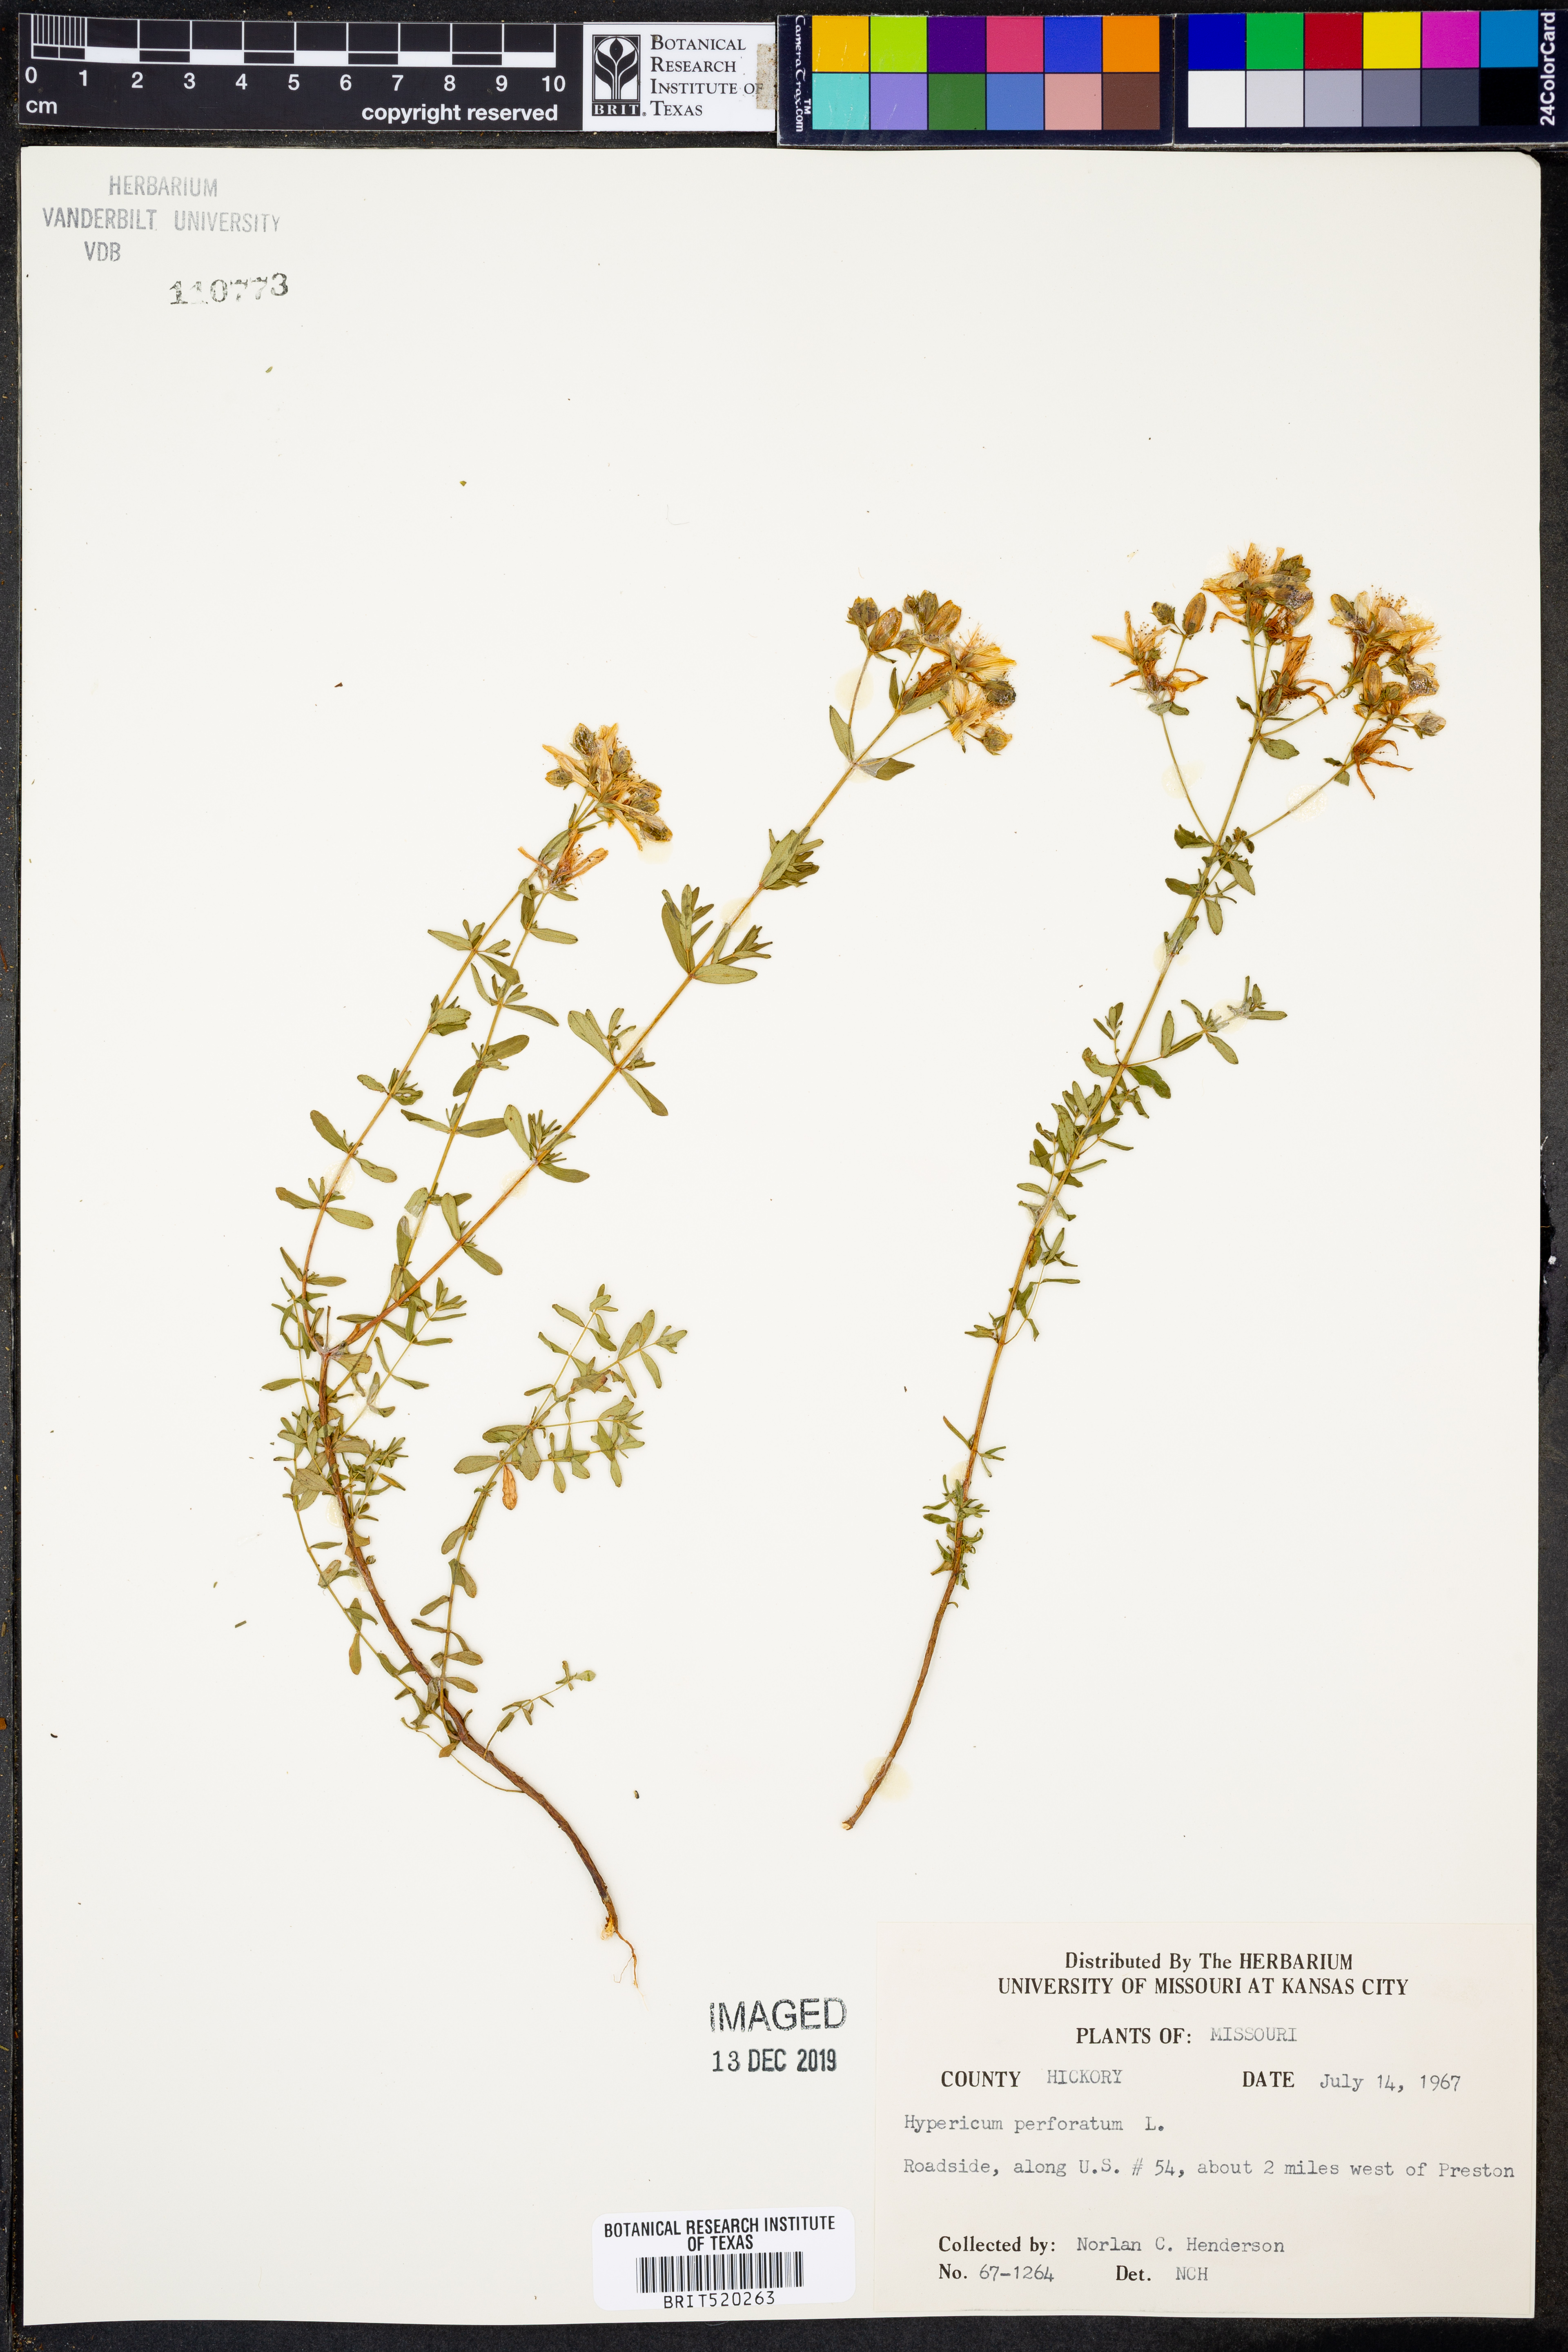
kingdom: Plantae
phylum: Tracheophyta
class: Magnoliopsida
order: Malpighiales
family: Hypericaceae
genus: Hypericum
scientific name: Hypericum perforatum
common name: Common st. johnswort
